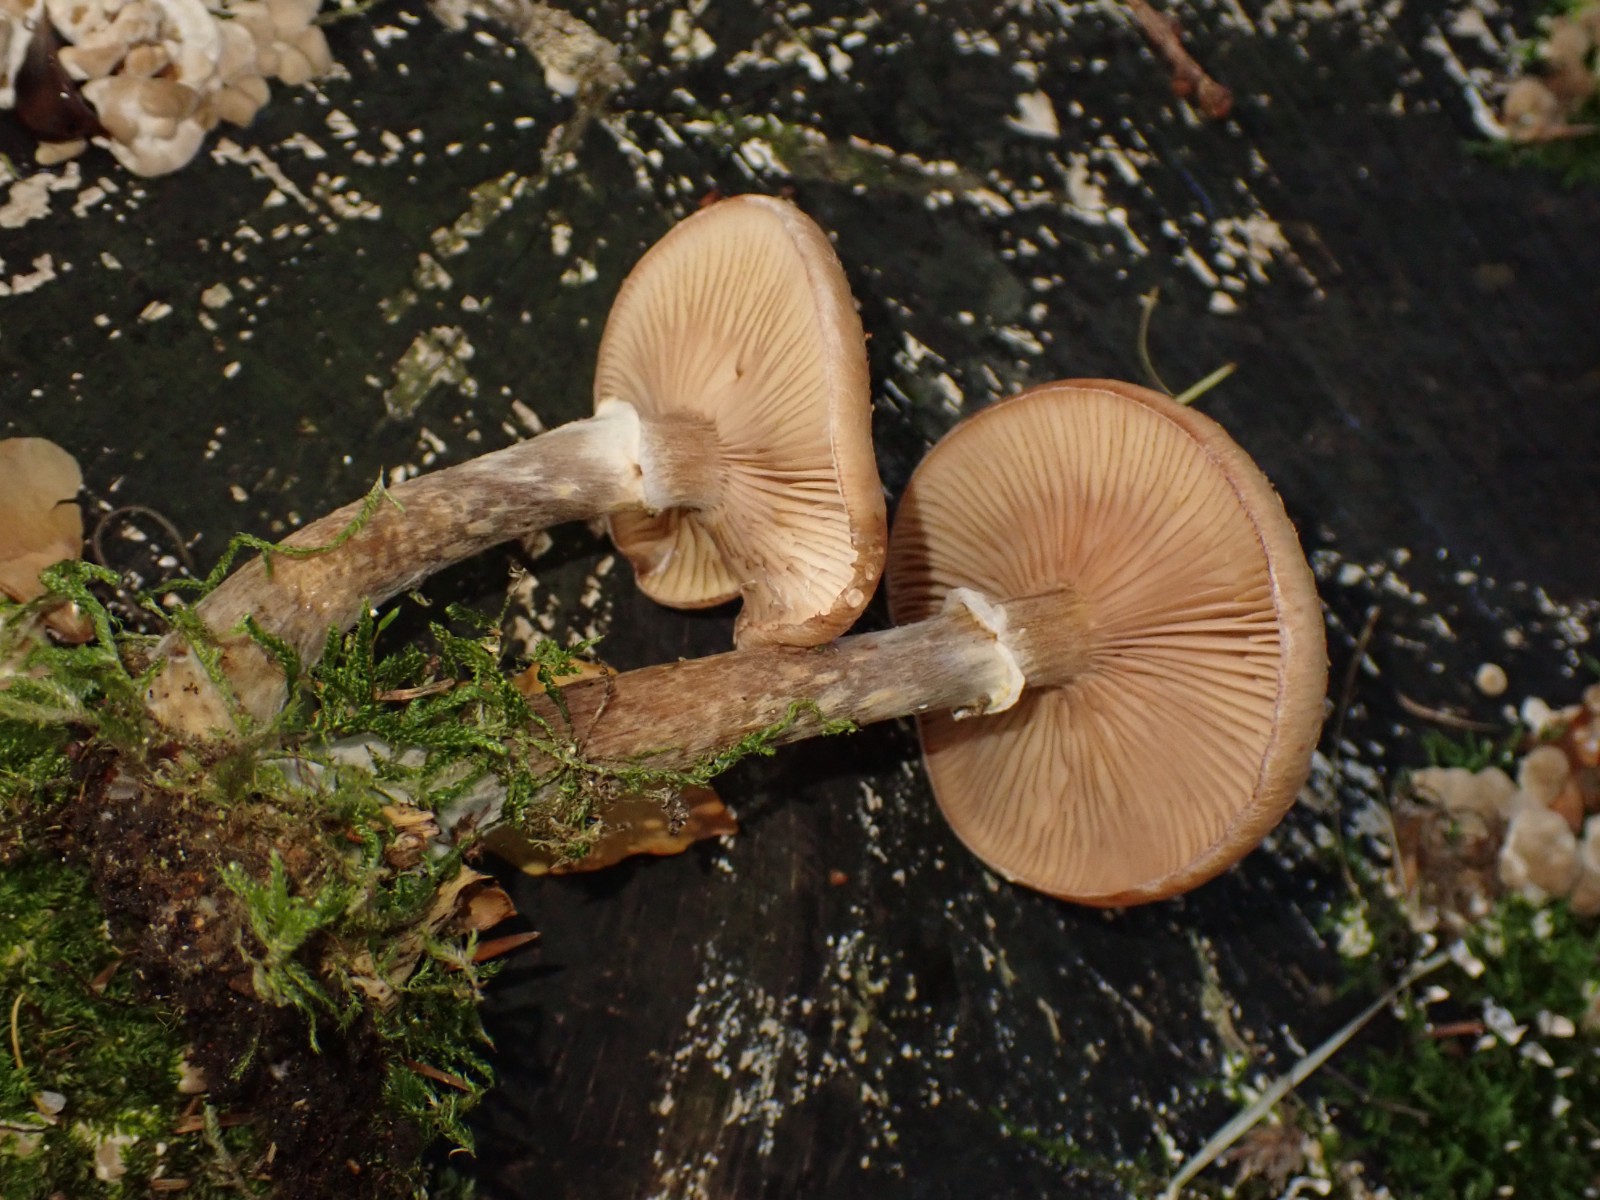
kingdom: Fungi
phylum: Basidiomycota
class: Agaricomycetes
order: Agaricales
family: Physalacriaceae
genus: Armillaria
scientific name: Armillaria lutea
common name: køllestokket honningsvamp
